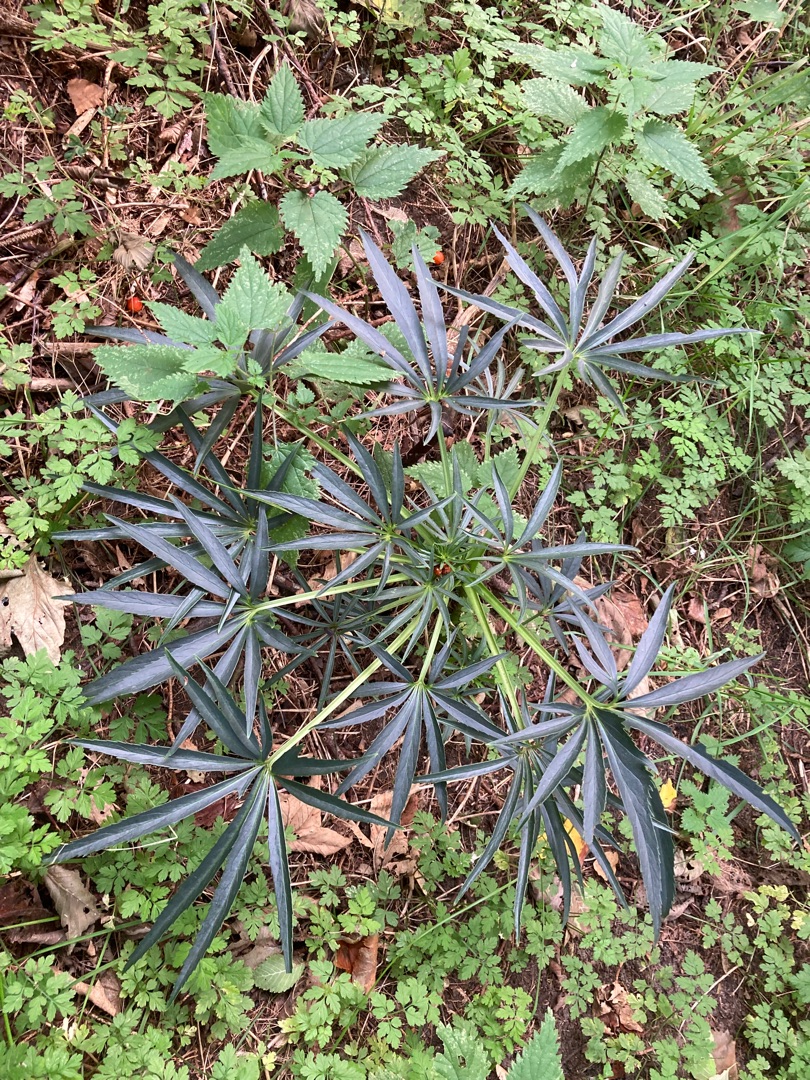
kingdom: Plantae
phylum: Tracheophyta
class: Magnoliopsida
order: Ranunculales
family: Ranunculaceae
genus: Helleborus
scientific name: Helleborus foetidus
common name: Stinkende julerose
